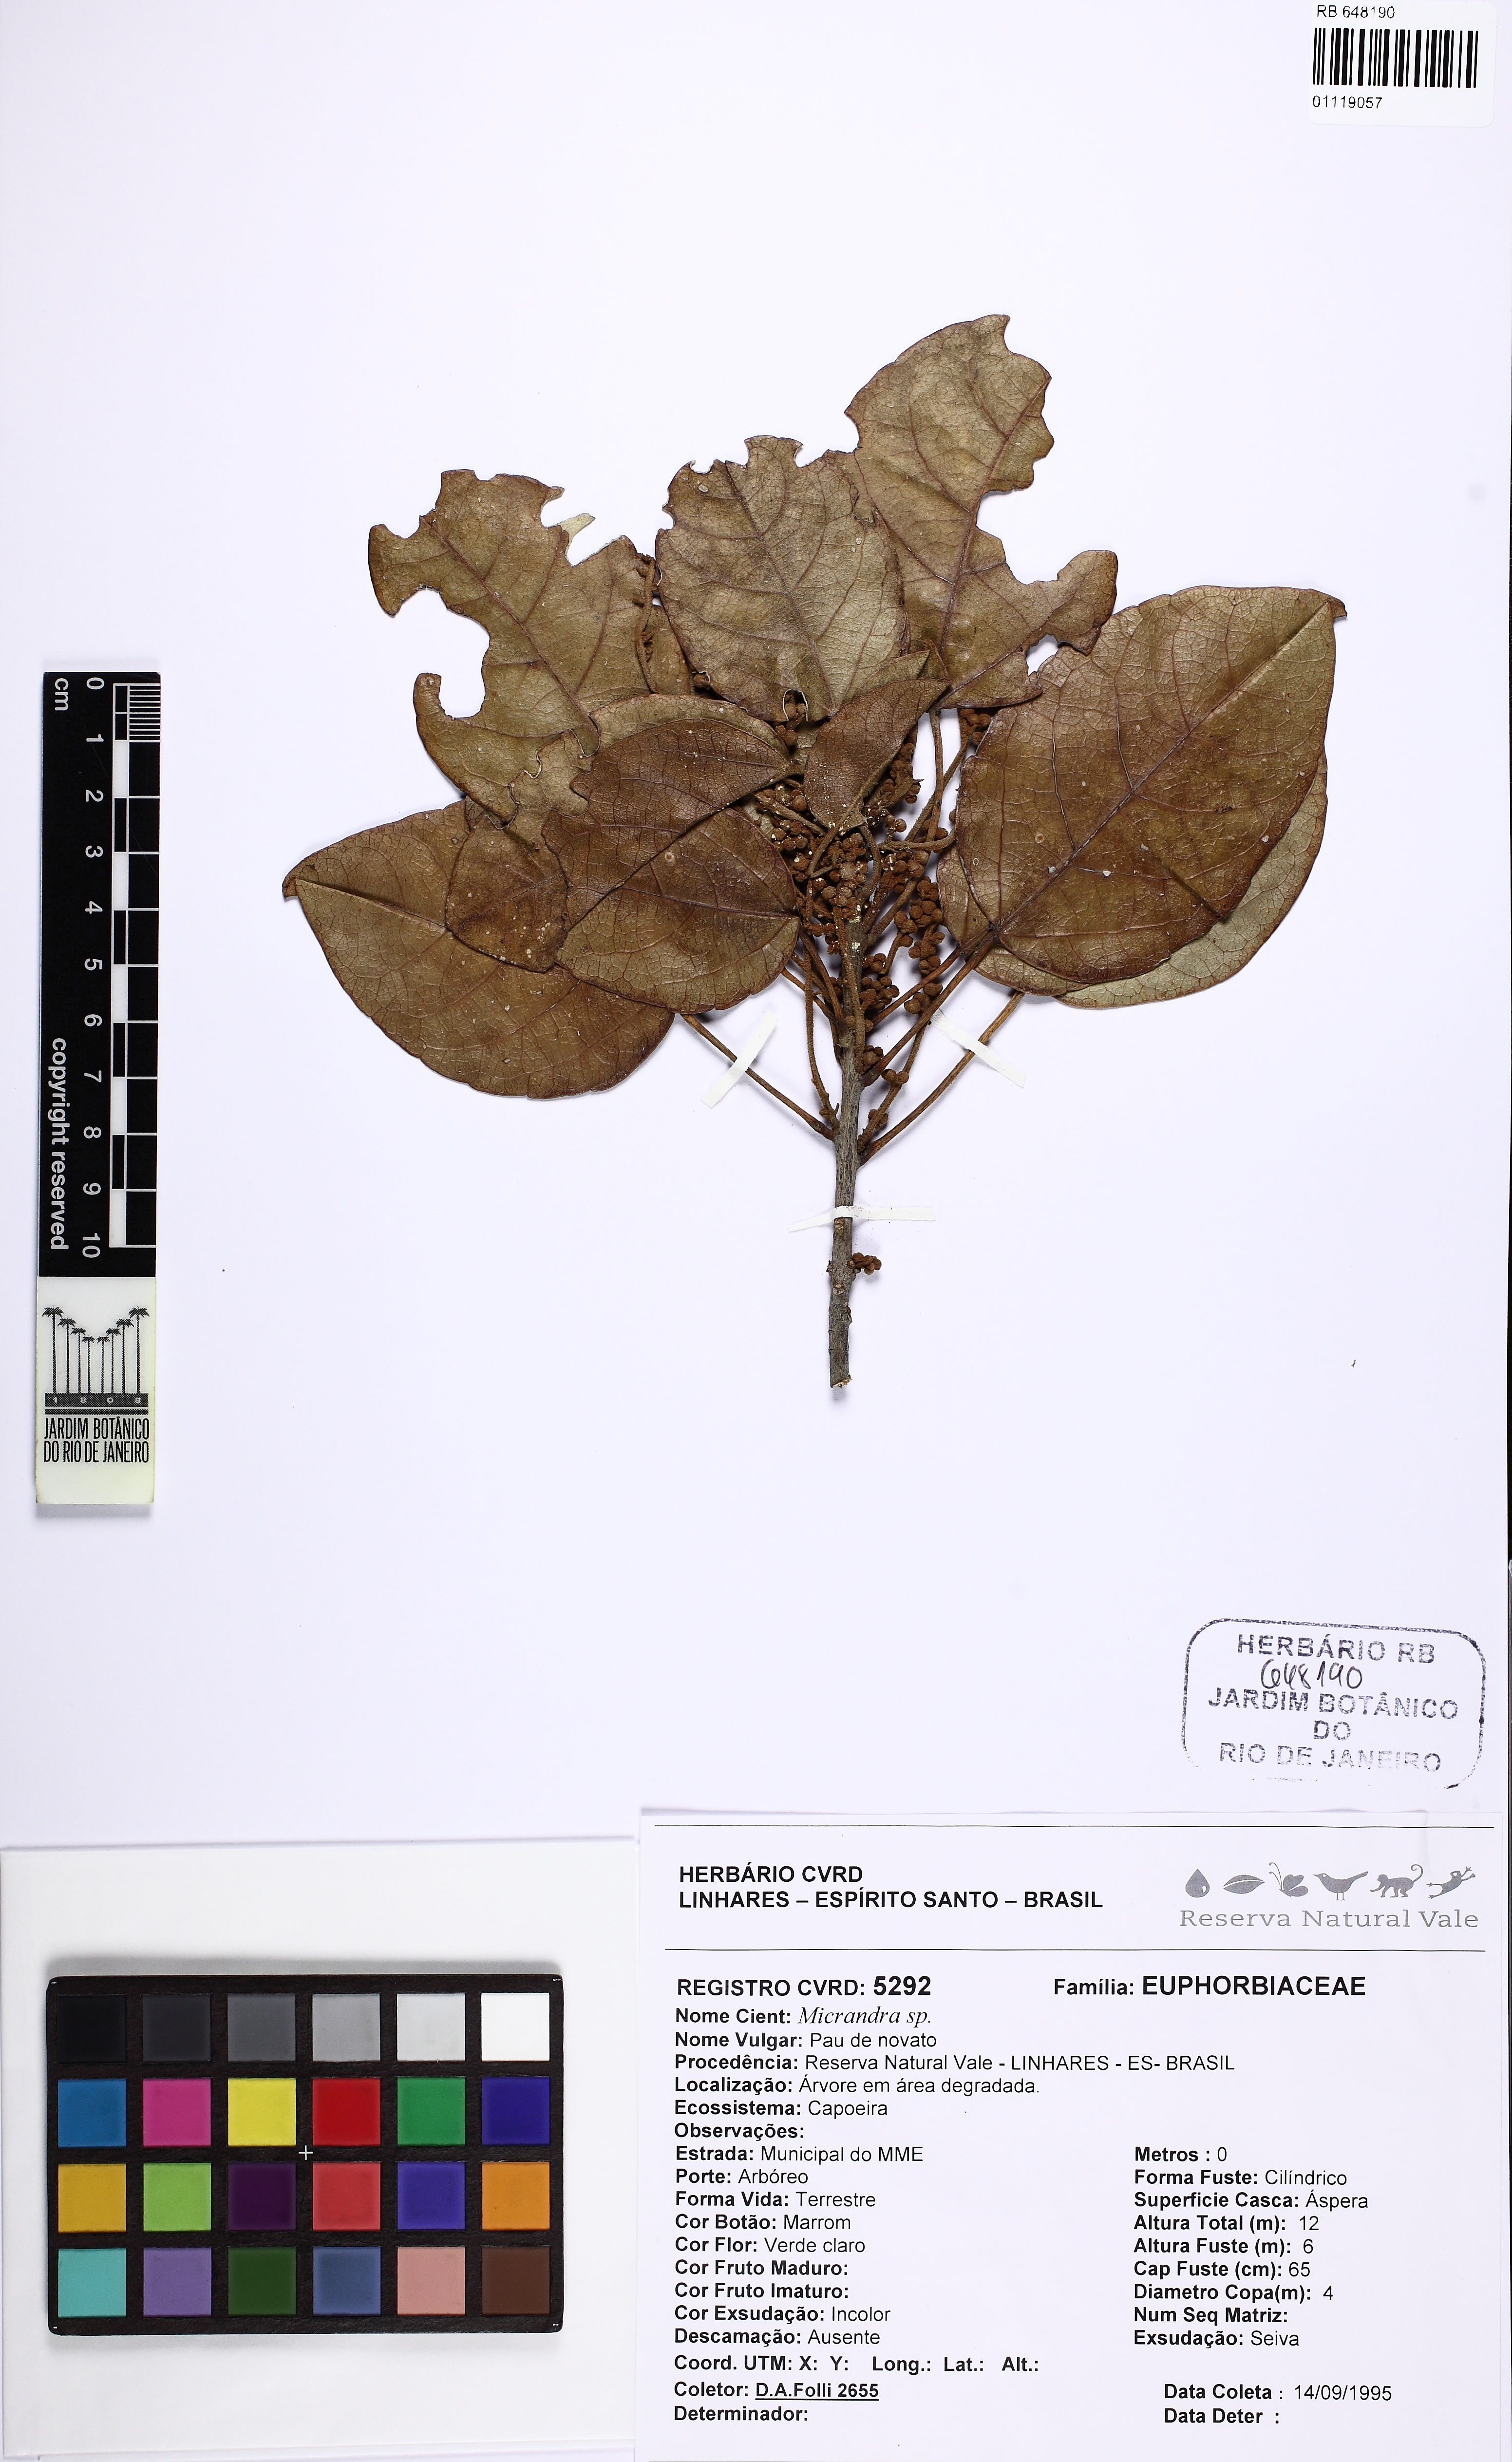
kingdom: Plantae
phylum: Tracheophyta
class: Magnoliopsida
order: Malpighiales
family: Euphorbiaceae
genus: Micrandra
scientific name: Micrandra
